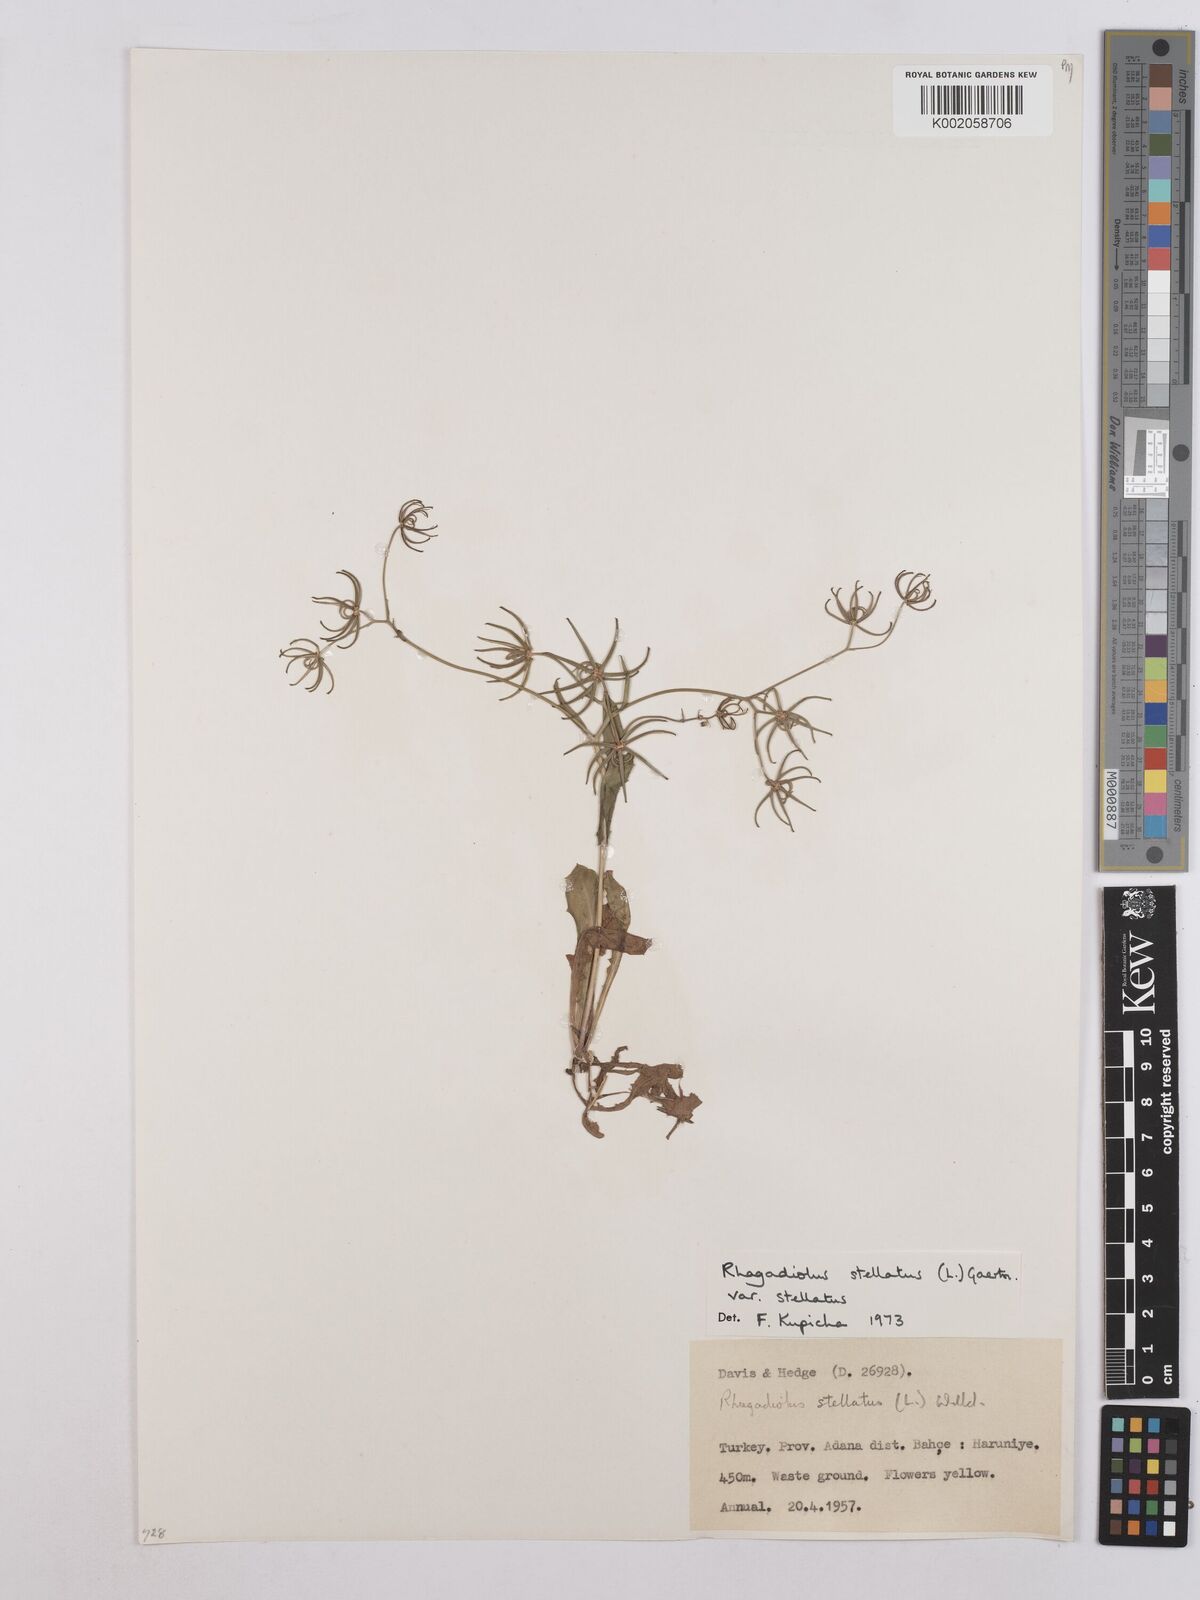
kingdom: Plantae
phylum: Tracheophyta
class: Magnoliopsida
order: Asterales
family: Asteraceae
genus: Rhagadiolus
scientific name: Rhagadiolus stellatus
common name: Star hawkbit
